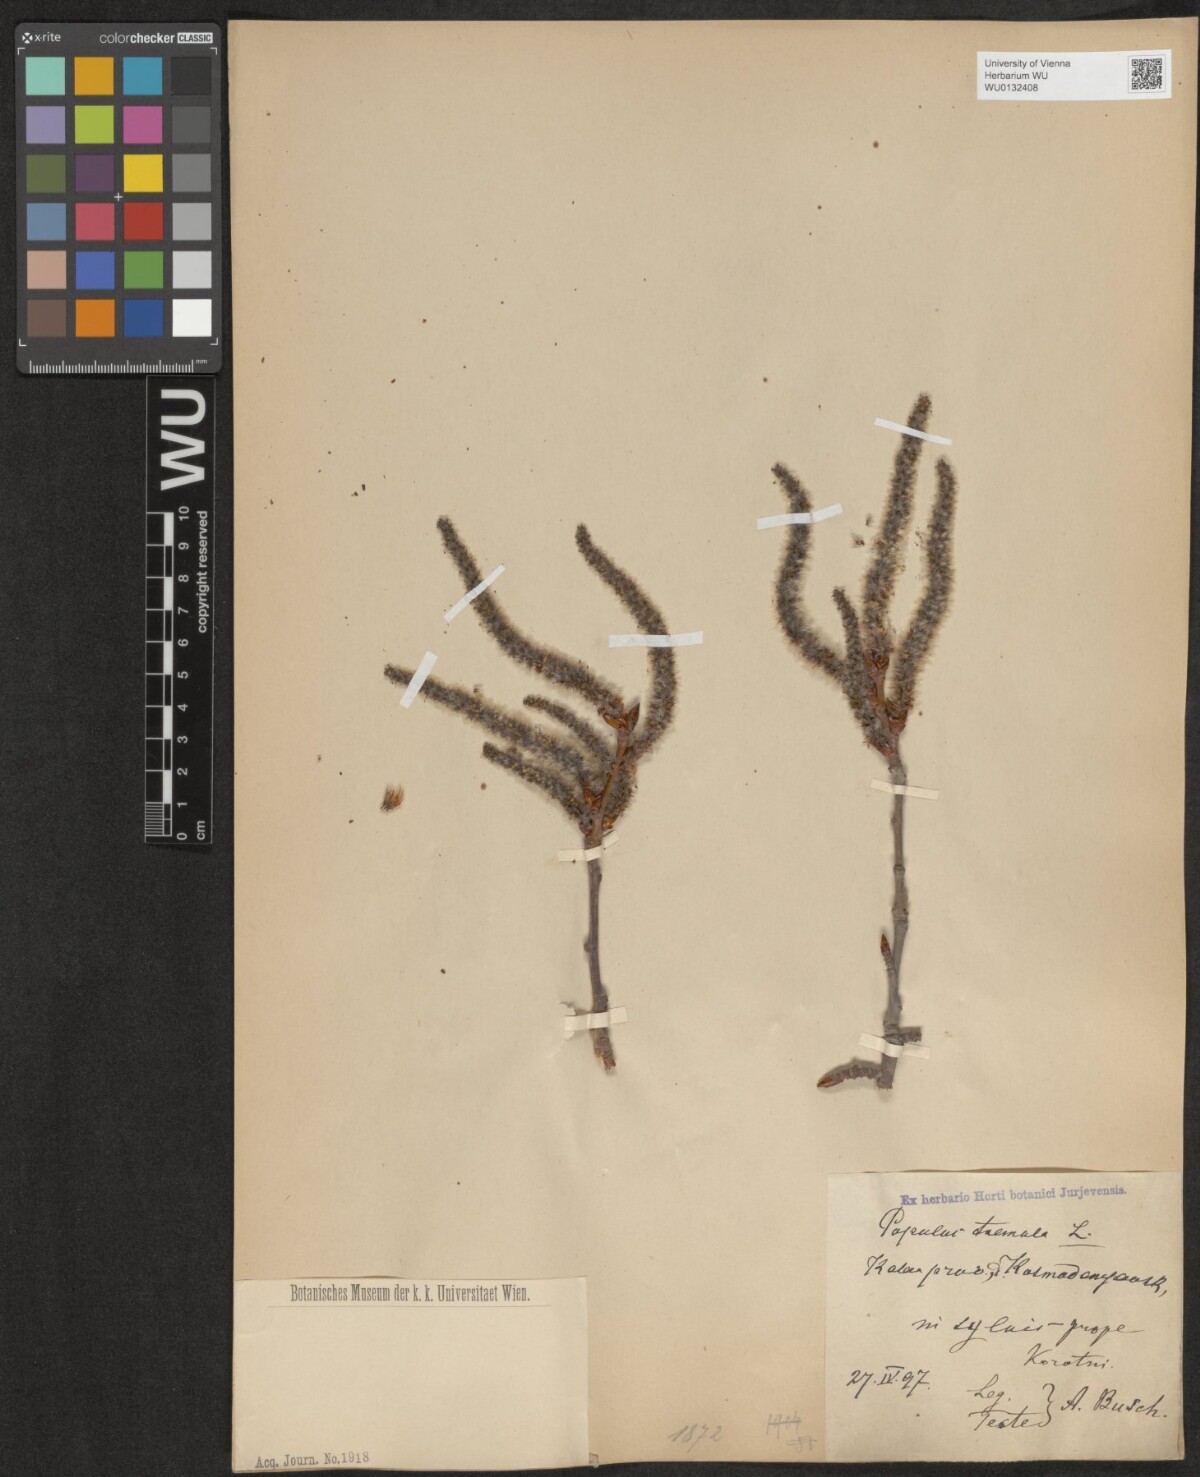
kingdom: Plantae
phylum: Tracheophyta
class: Magnoliopsida
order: Malpighiales
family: Salicaceae
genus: Populus
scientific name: Populus tremula
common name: European aspen
